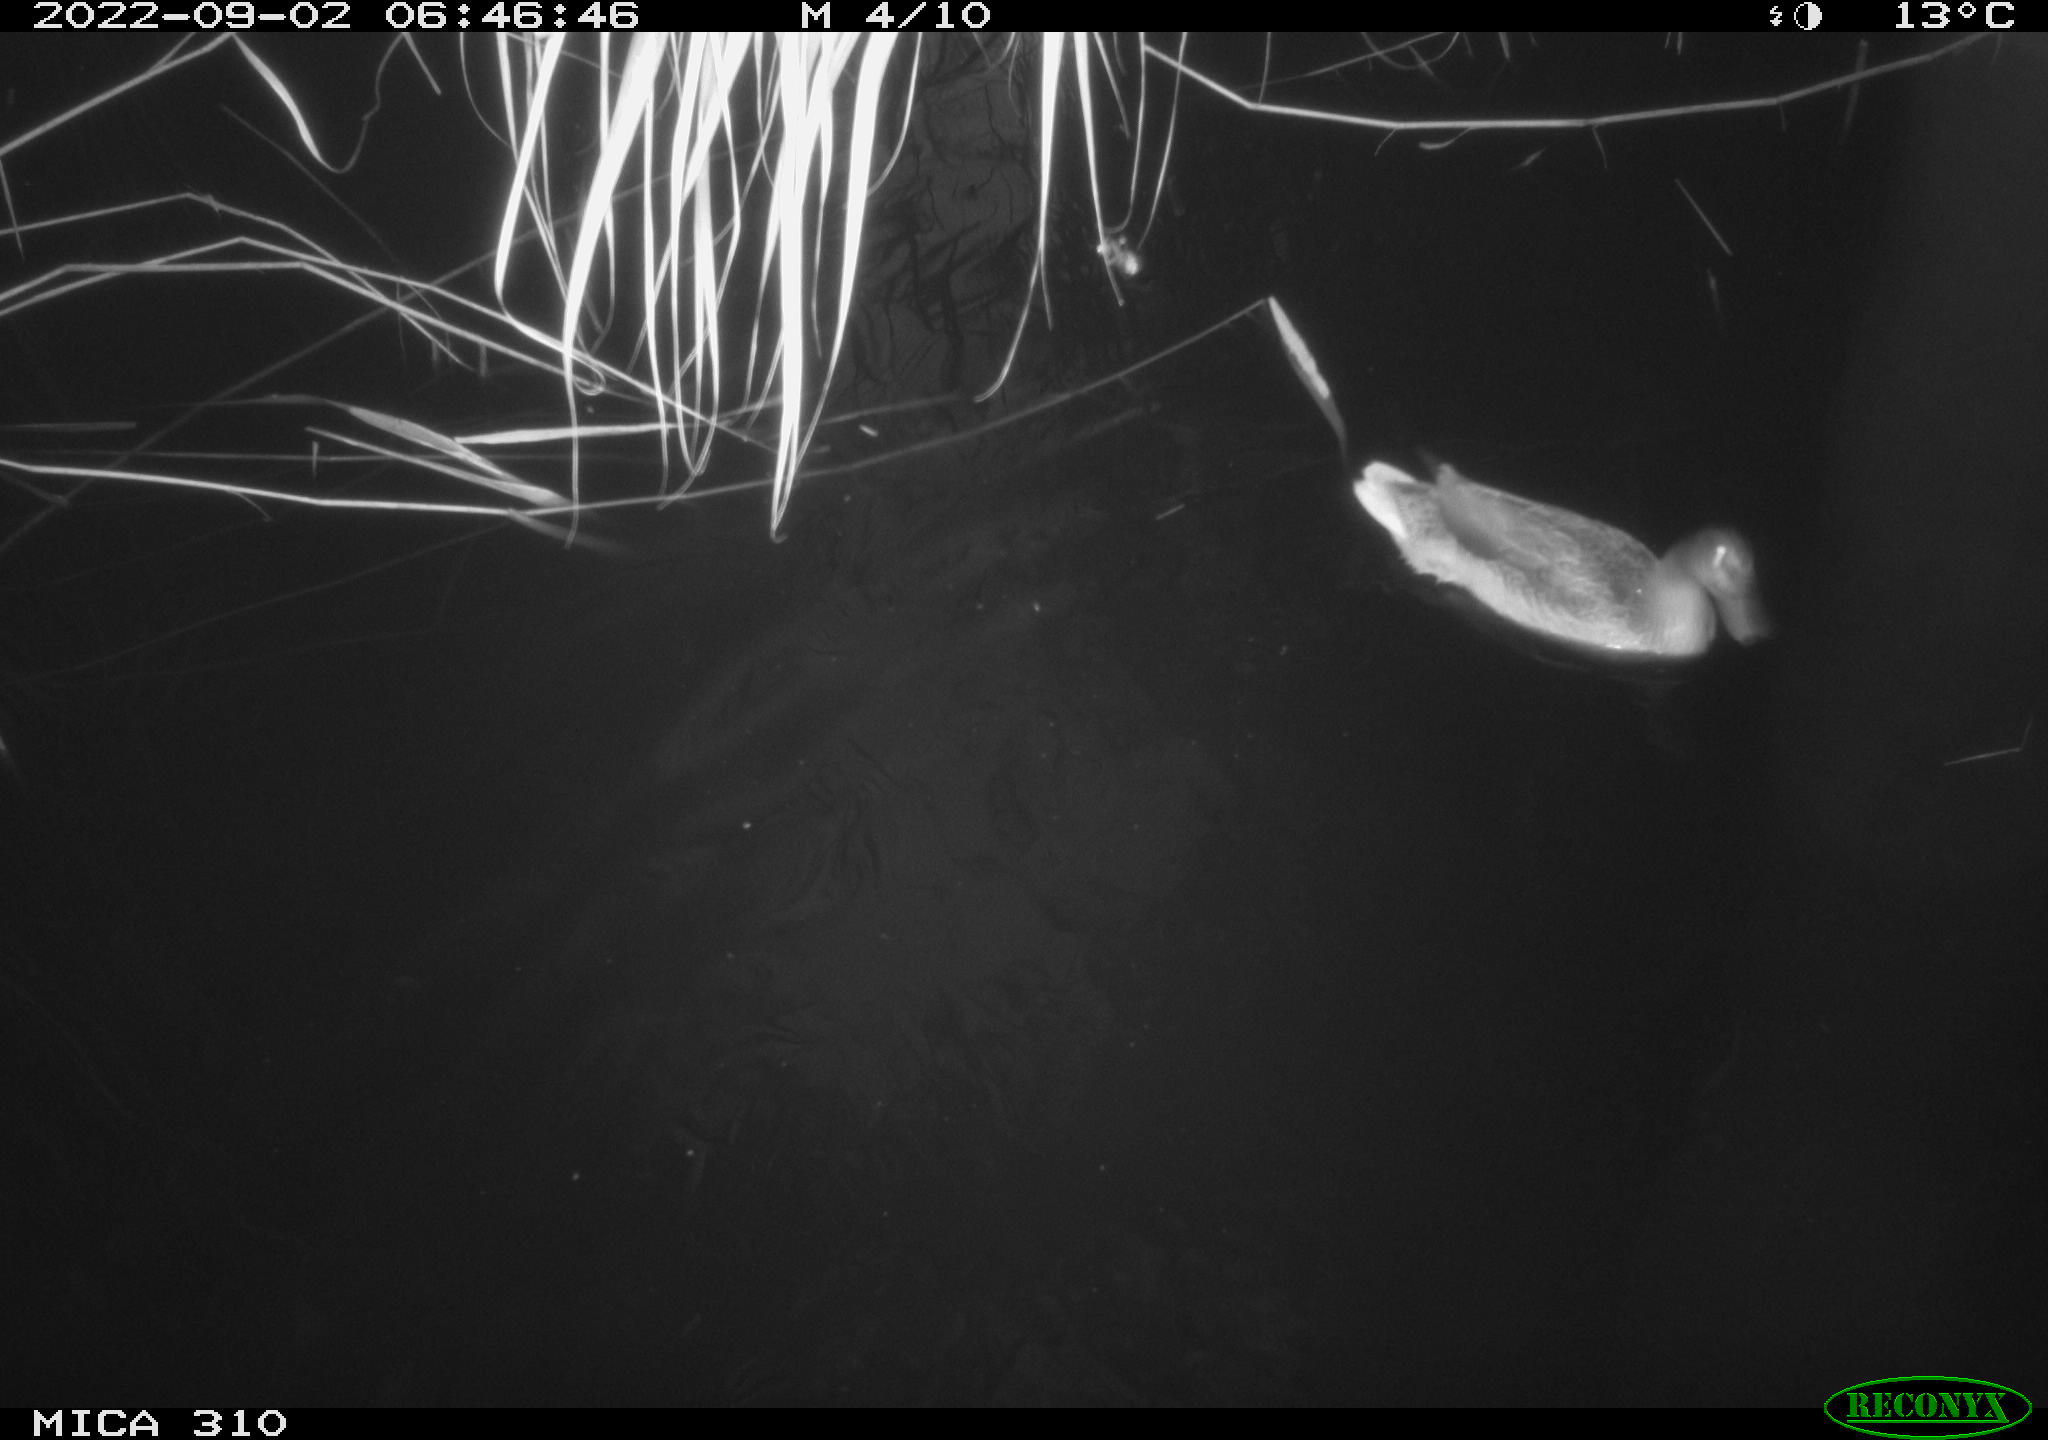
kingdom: Animalia
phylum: Chordata
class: Aves
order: Anseriformes
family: Anatidae
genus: Anas
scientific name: Anas platyrhynchos
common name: Mallard
